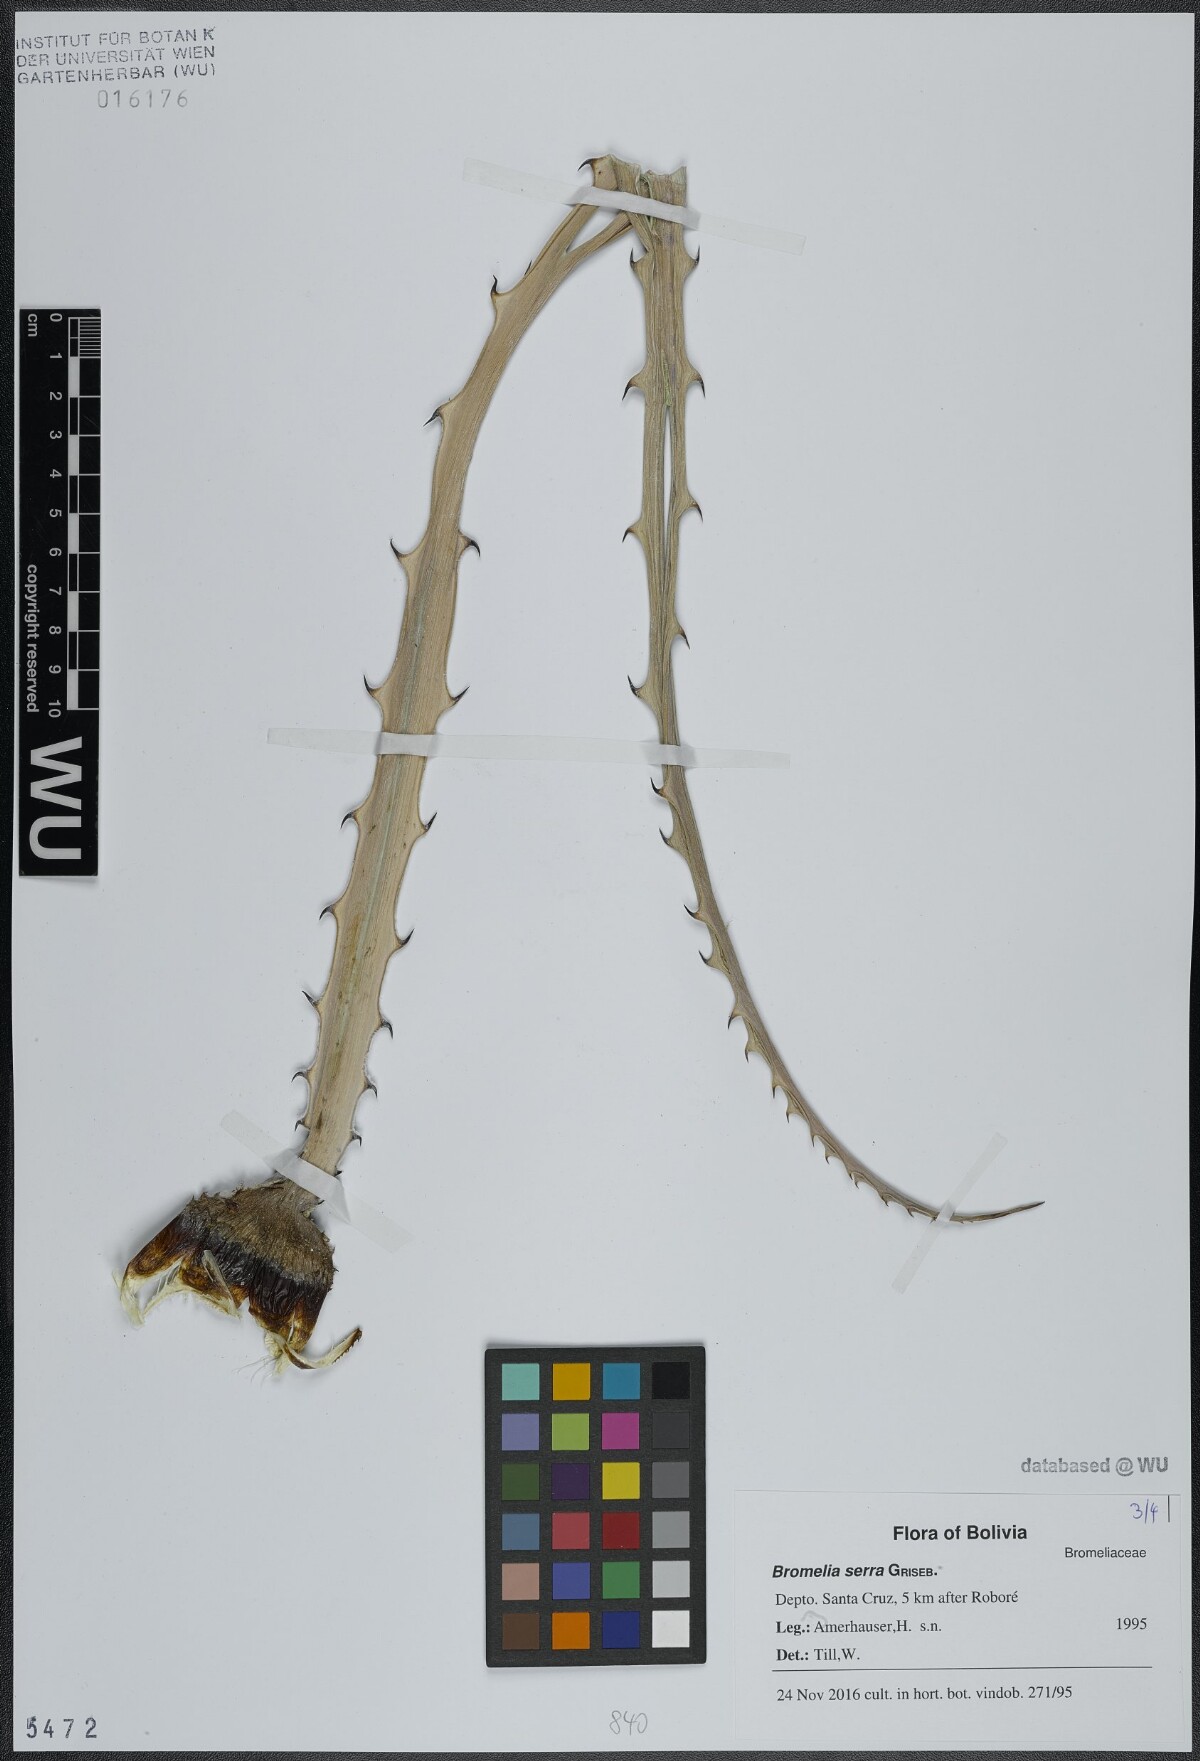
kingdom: Plantae
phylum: Tracheophyta
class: Liliopsida
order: Poales
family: Bromeliaceae
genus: Bromelia
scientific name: Bromelia serra
